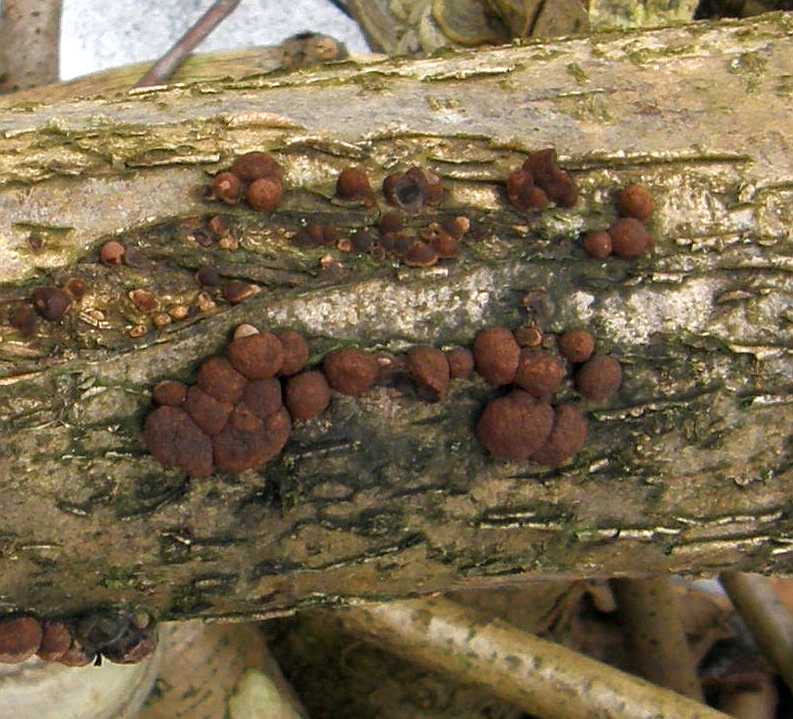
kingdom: Fungi
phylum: Ascomycota
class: Sordariomycetes
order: Xylariales
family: Hypoxylaceae
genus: Hypoxylon
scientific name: Hypoxylon fuscum
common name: kegleformet kulbær
